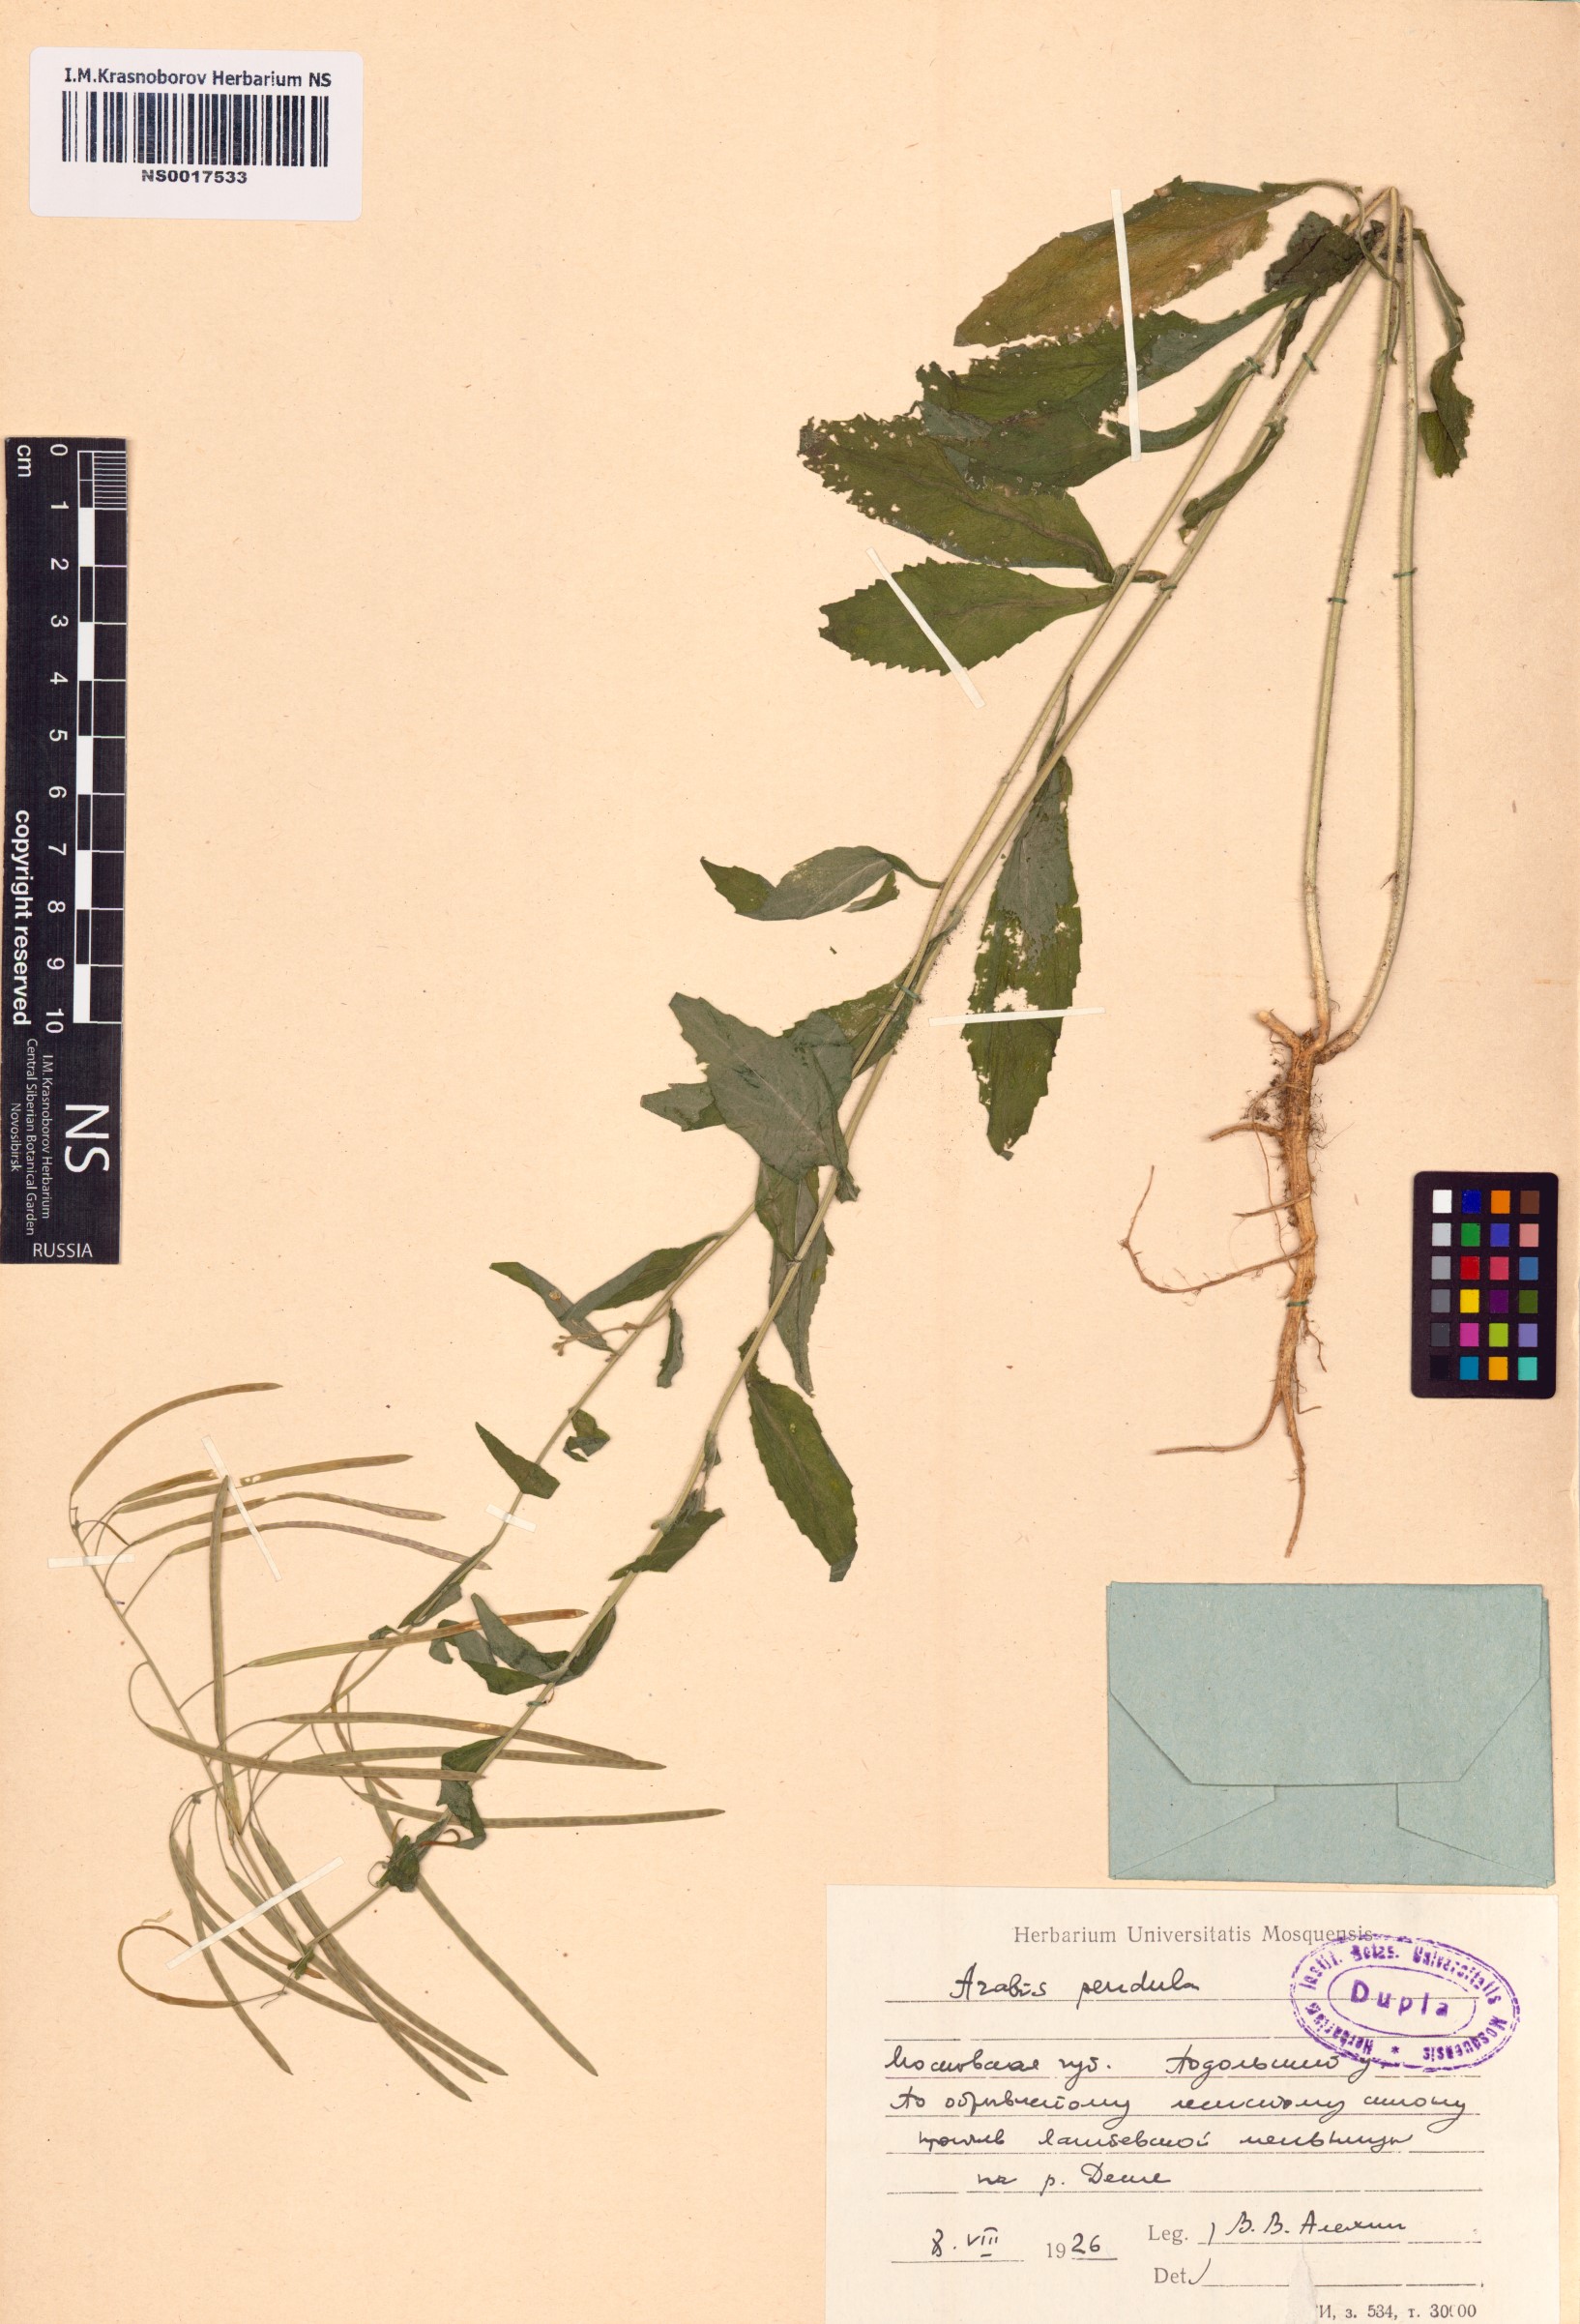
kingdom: Plantae
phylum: Tracheophyta
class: Magnoliopsida
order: Brassicales
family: Brassicaceae
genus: Catolobus
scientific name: Catolobus pendulus
